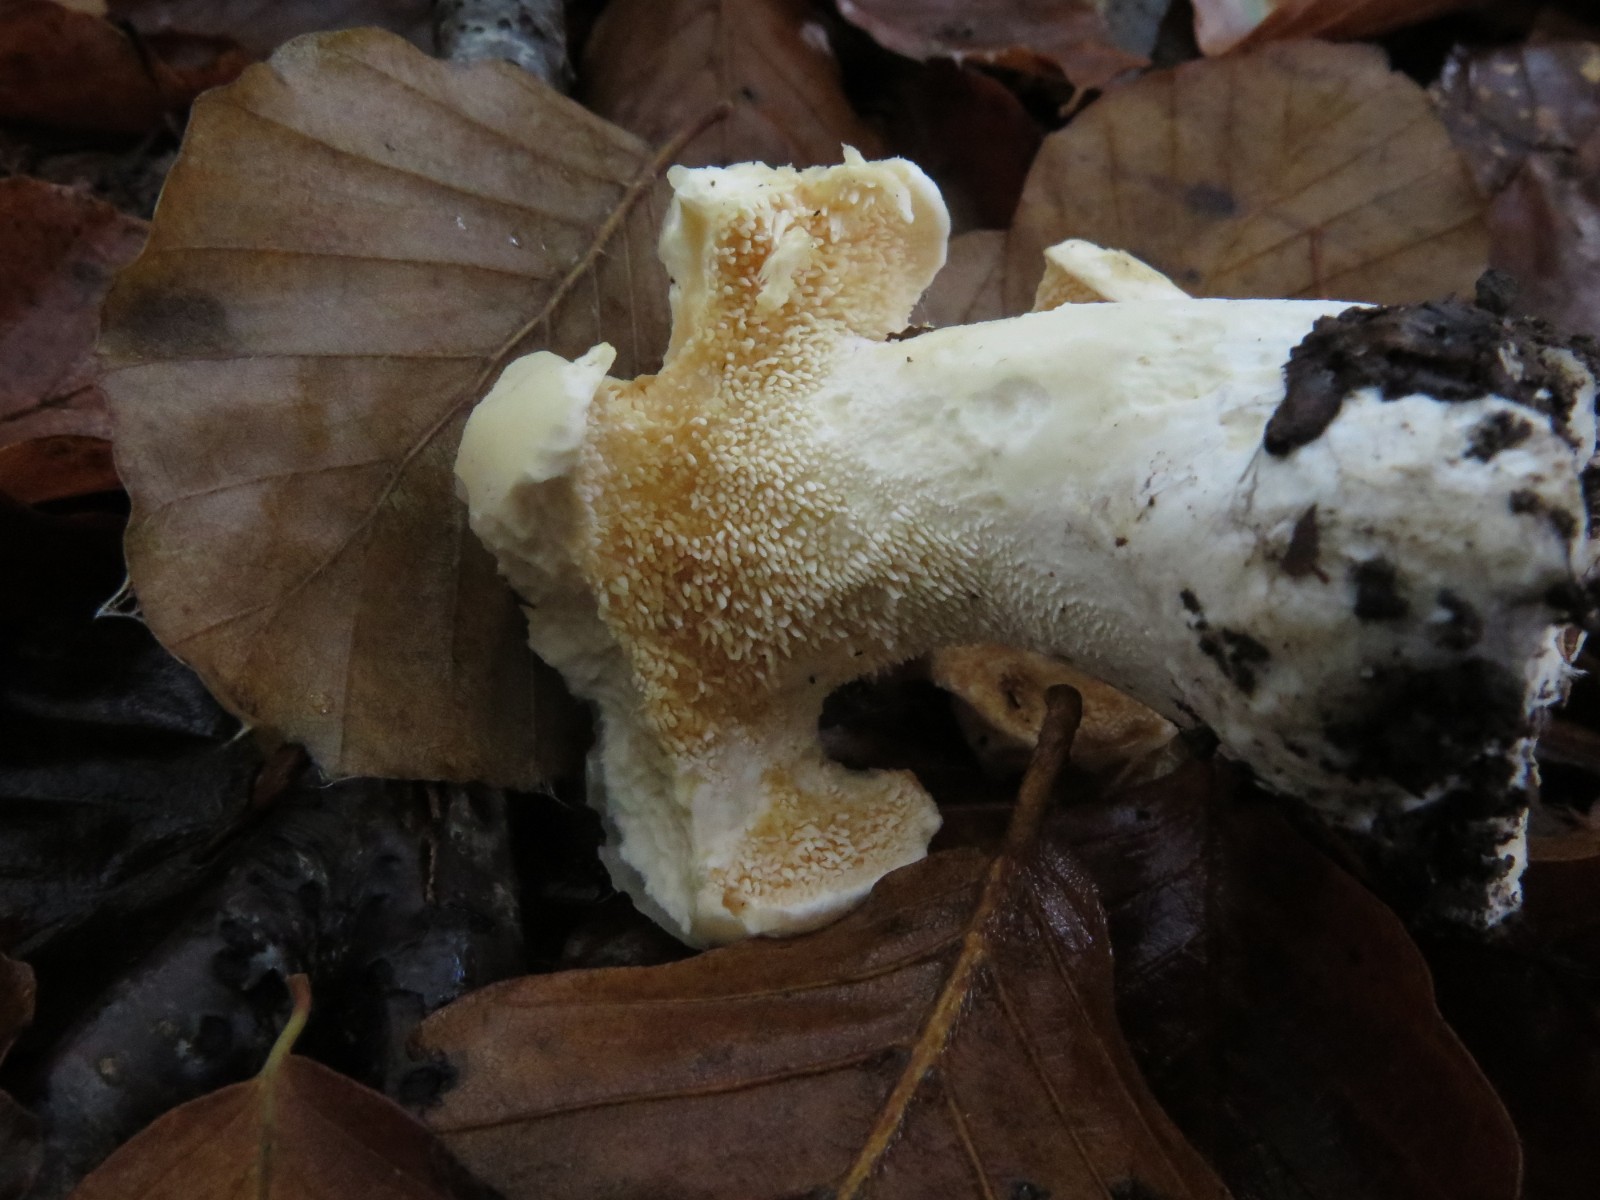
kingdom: Fungi
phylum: Basidiomycota
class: Agaricomycetes
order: Cantharellales
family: Hydnaceae
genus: Hydnum
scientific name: Hydnum repandum
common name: almindelig pigsvamp
